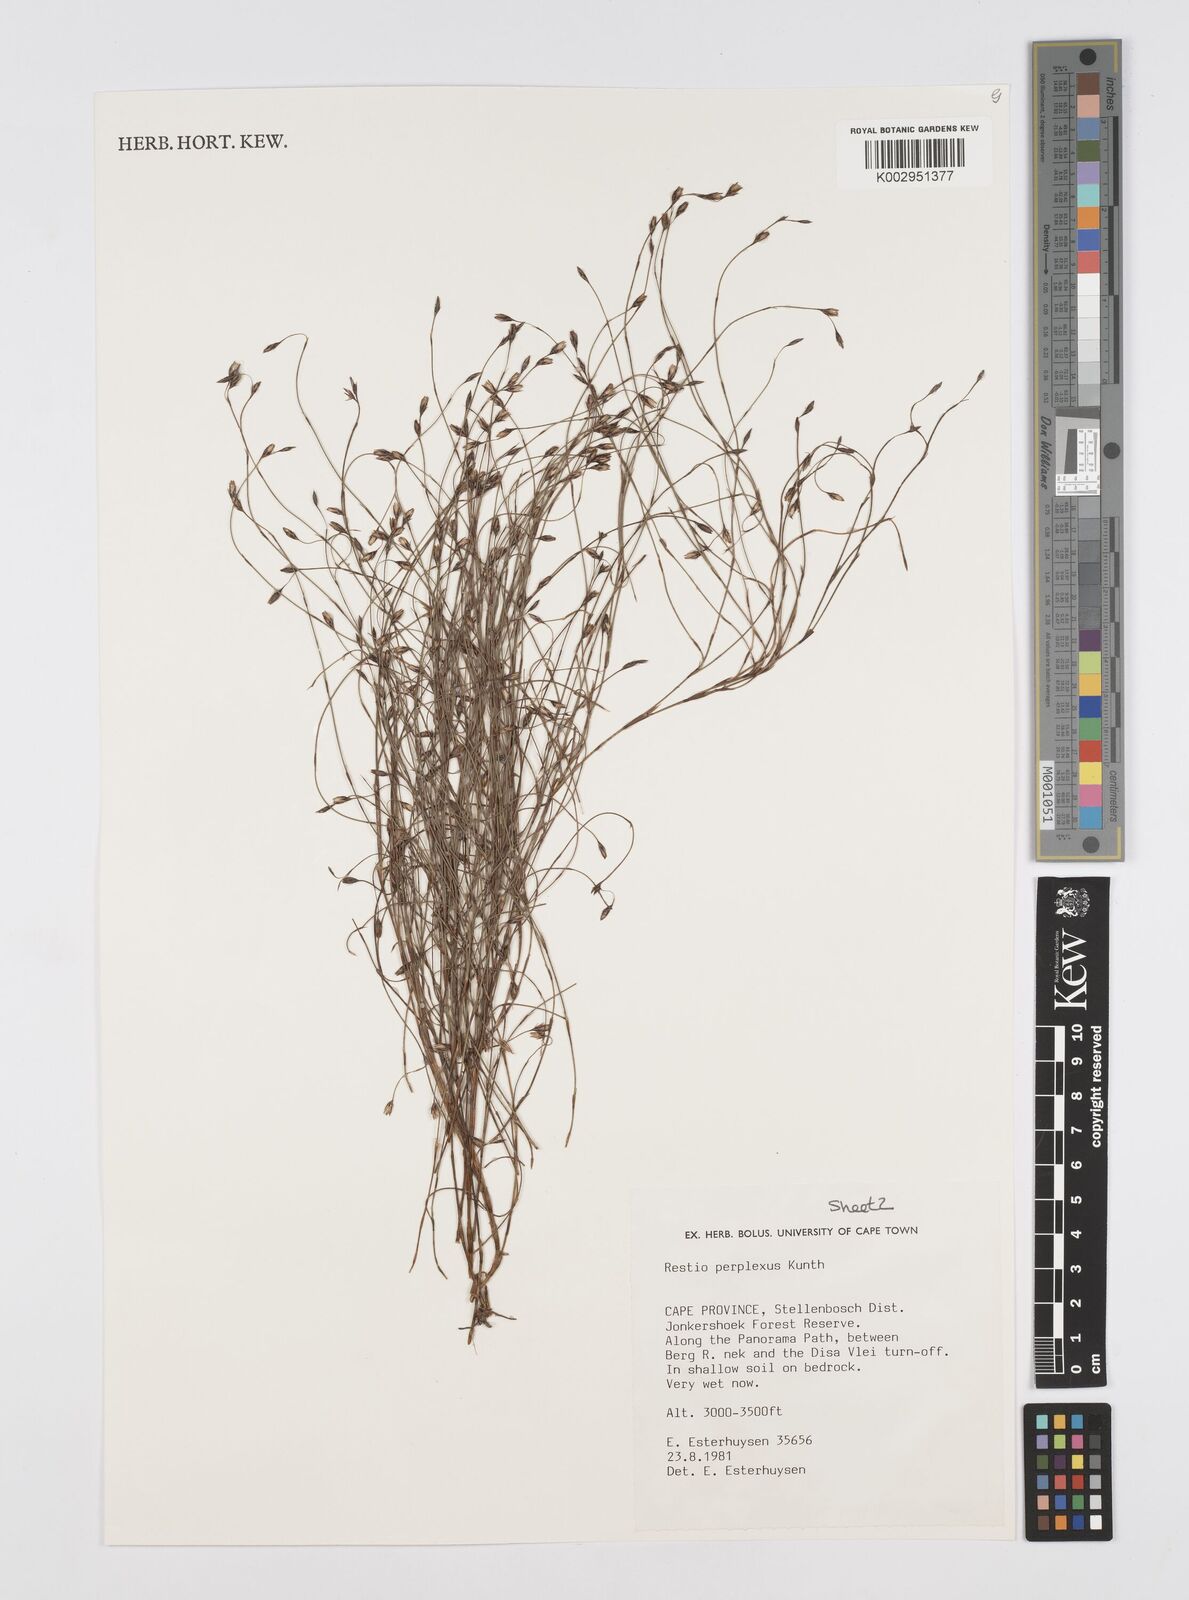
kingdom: Plantae
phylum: Tracheophyta
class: Liliopsida
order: Poales
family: Restionaceae
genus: Restio
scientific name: Restio perplexus
